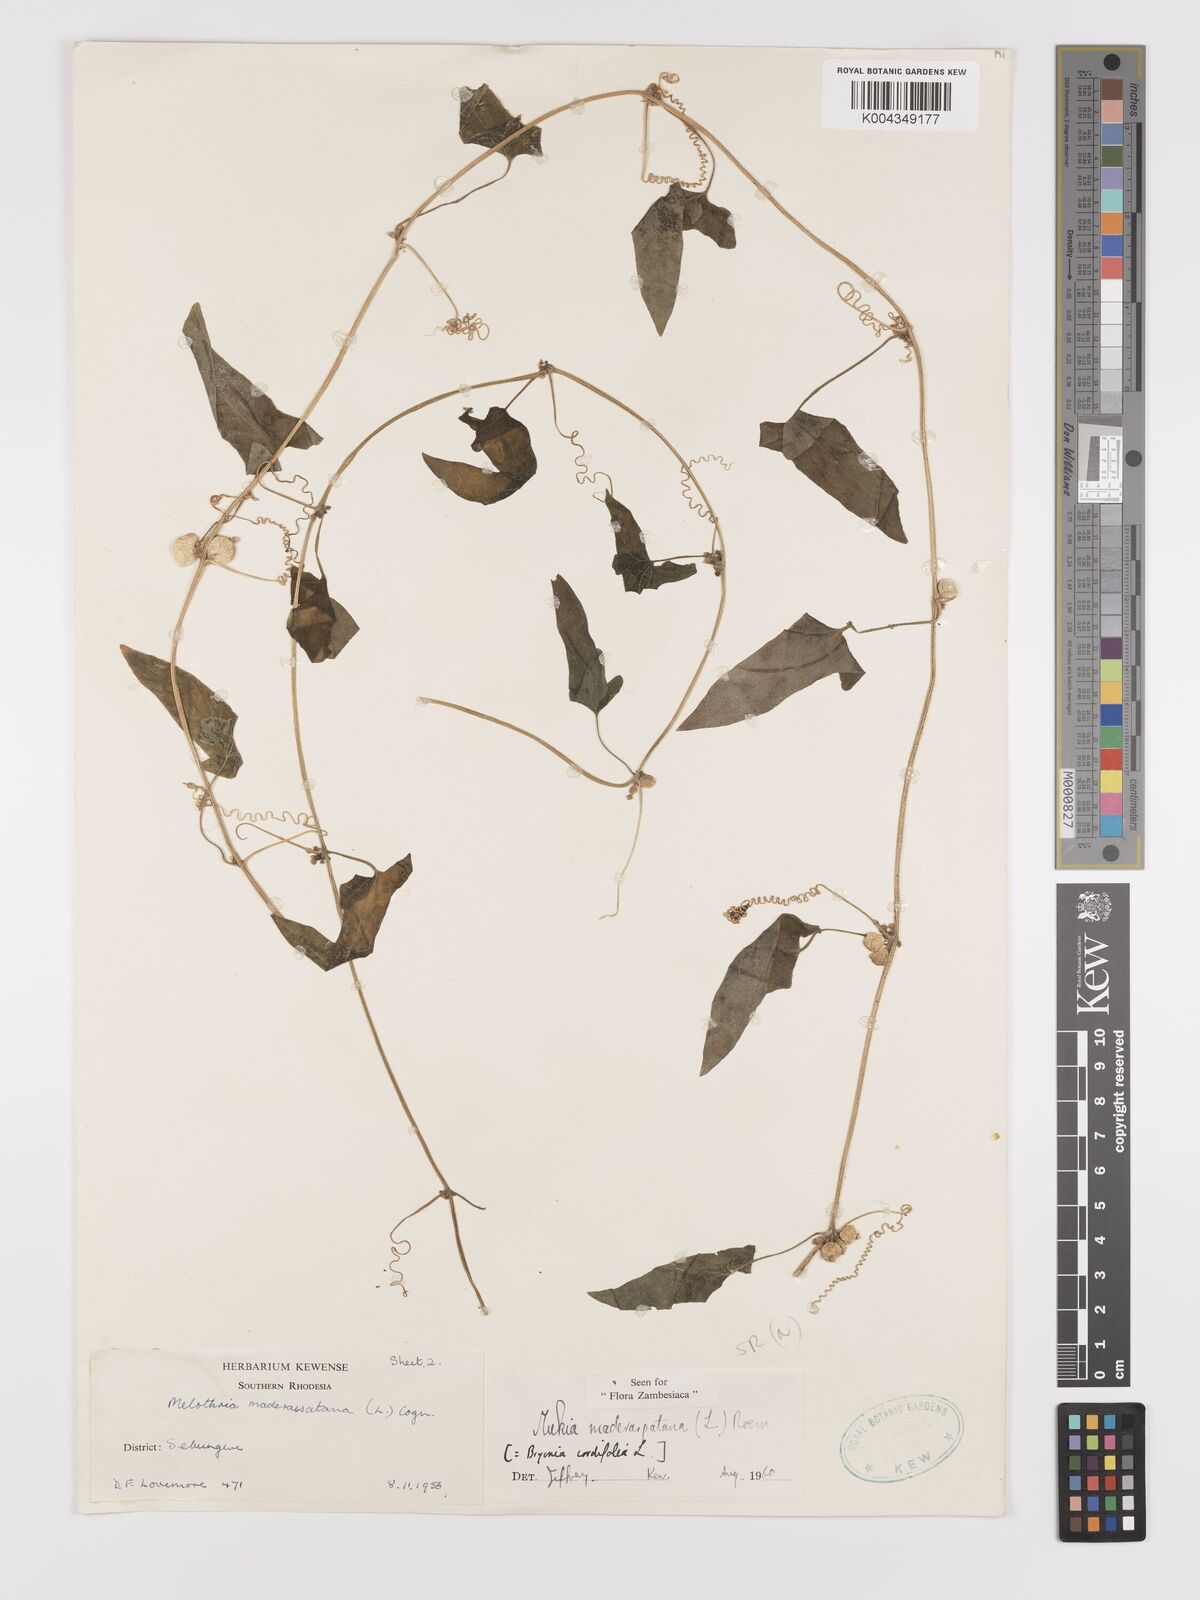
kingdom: Plantae
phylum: Tracheophyta
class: Magnoliopsida
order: Cucurbitales
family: Cucurbitaceae
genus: Cucumis
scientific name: Cucumis maderaspatanus
